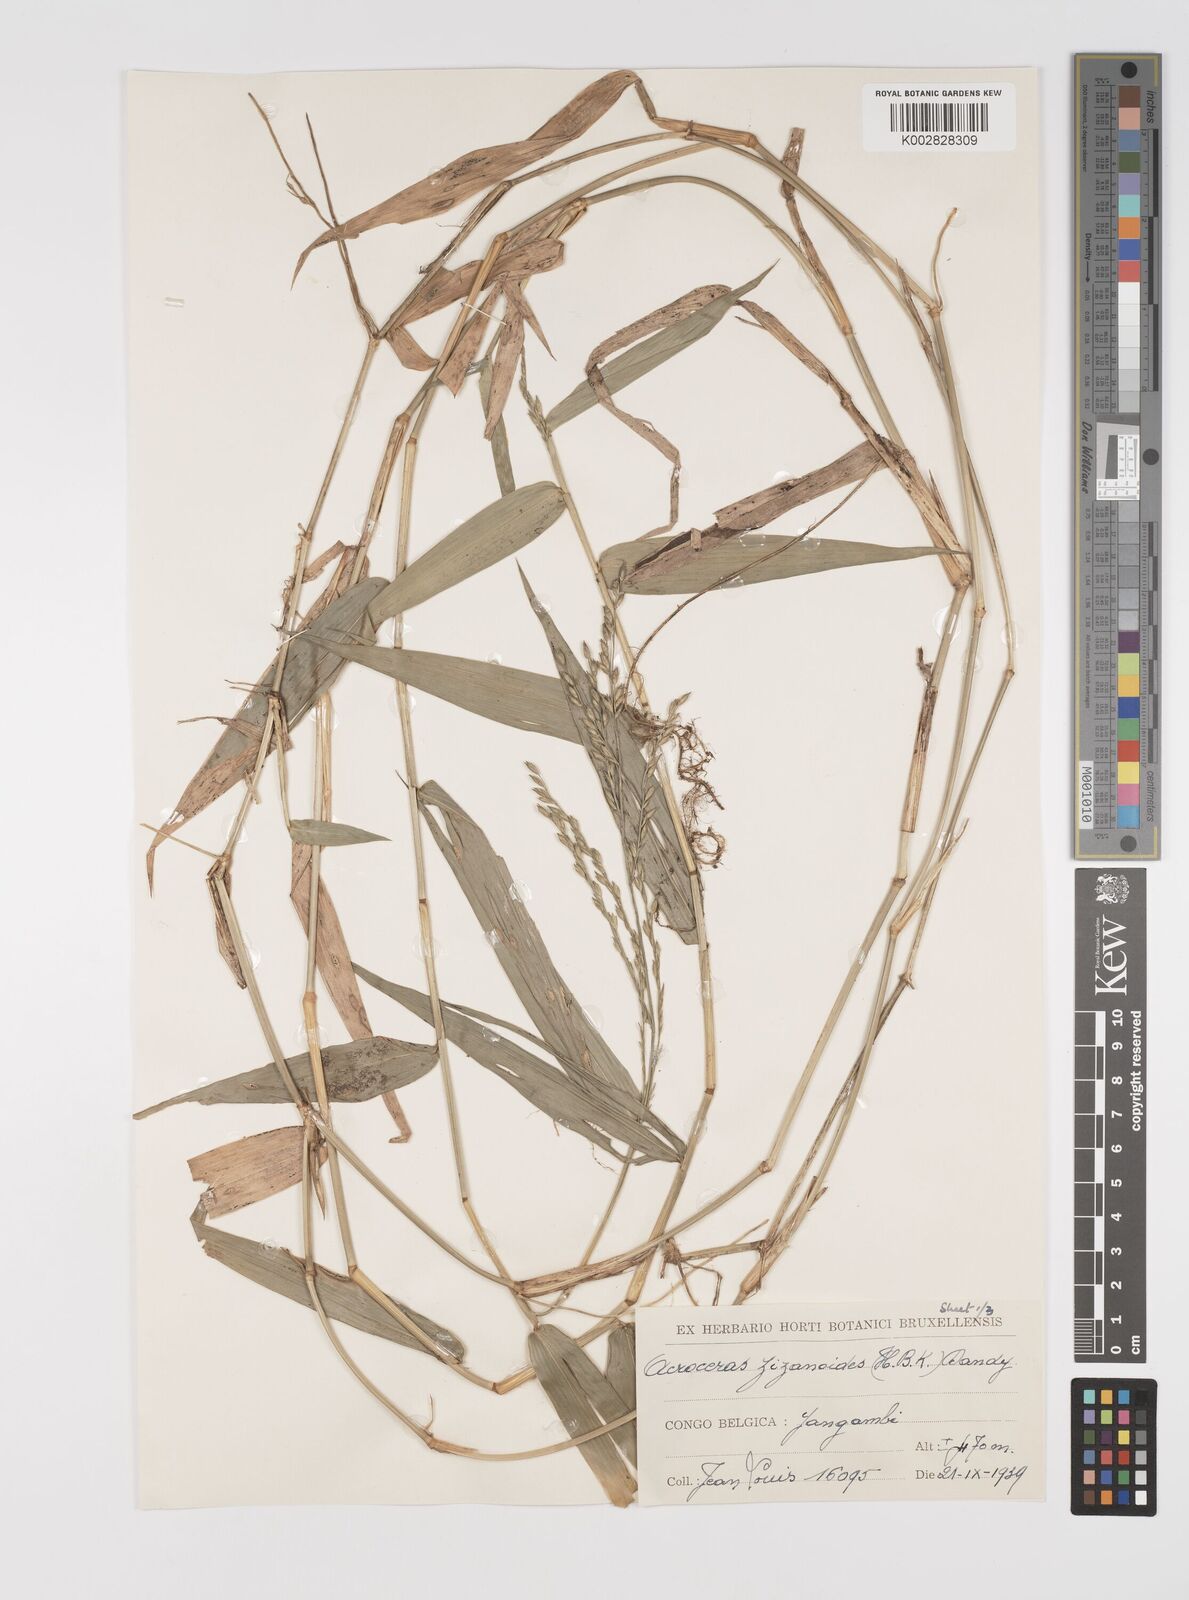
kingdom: Plantae
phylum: Tracheophyta
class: Liliopsida
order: Poales
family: Poaceae
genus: Acroceras
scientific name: Acroceras zizanioides
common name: Oat grass
